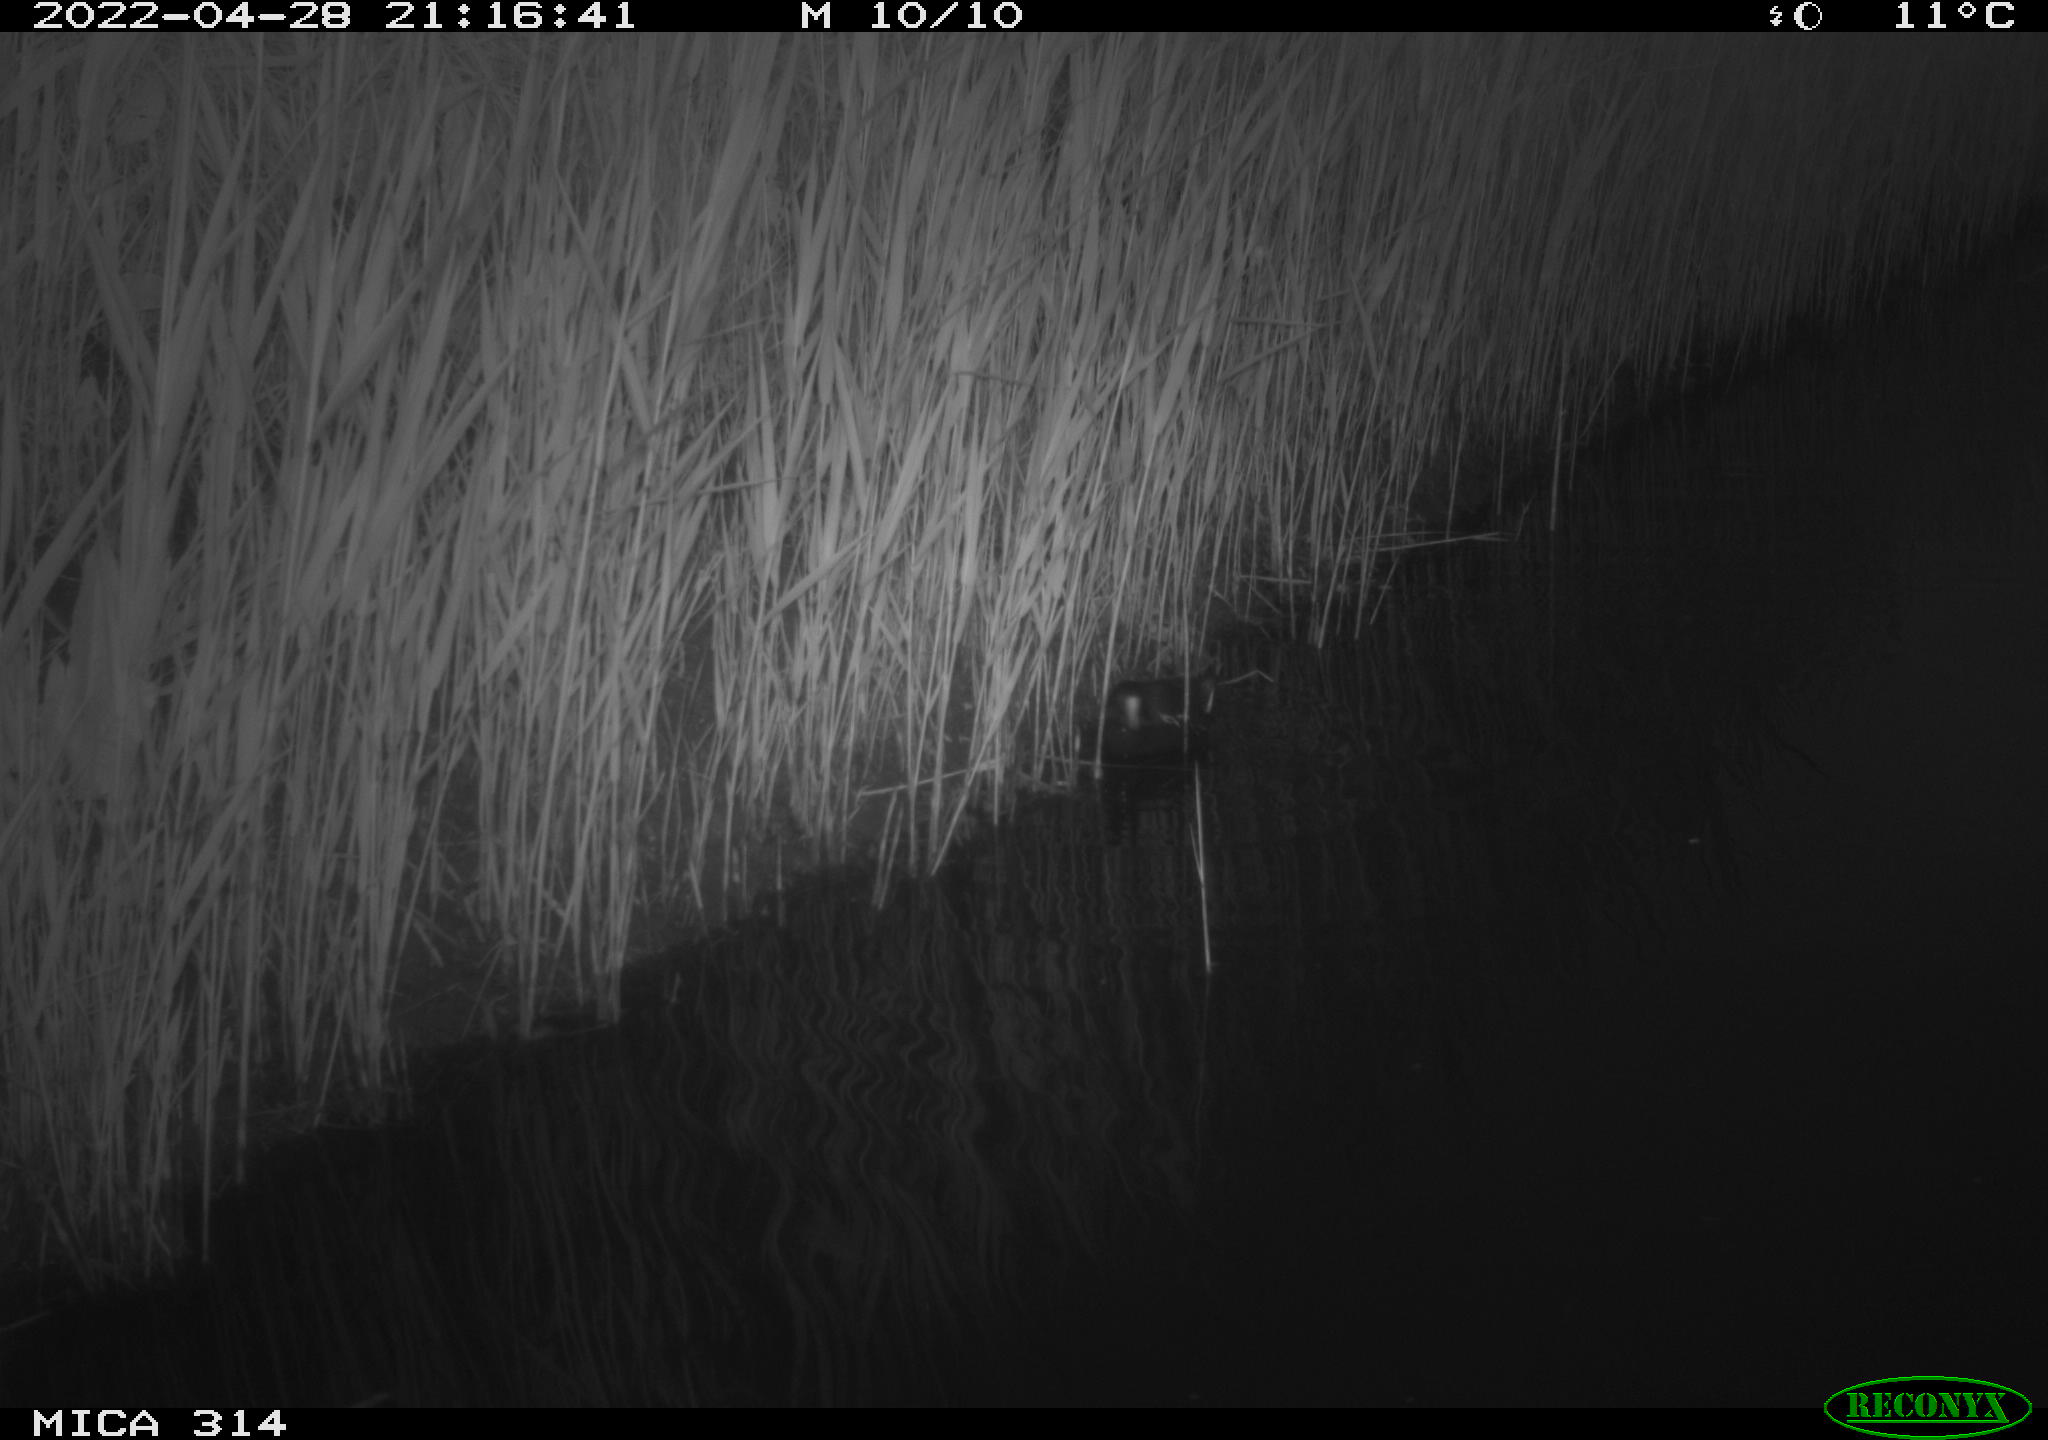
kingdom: Animalia
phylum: Chordata
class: Aves
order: Gruiformes
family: Rallidae
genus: Gallinula
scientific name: Gallinula chloropus
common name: Common moorhen
